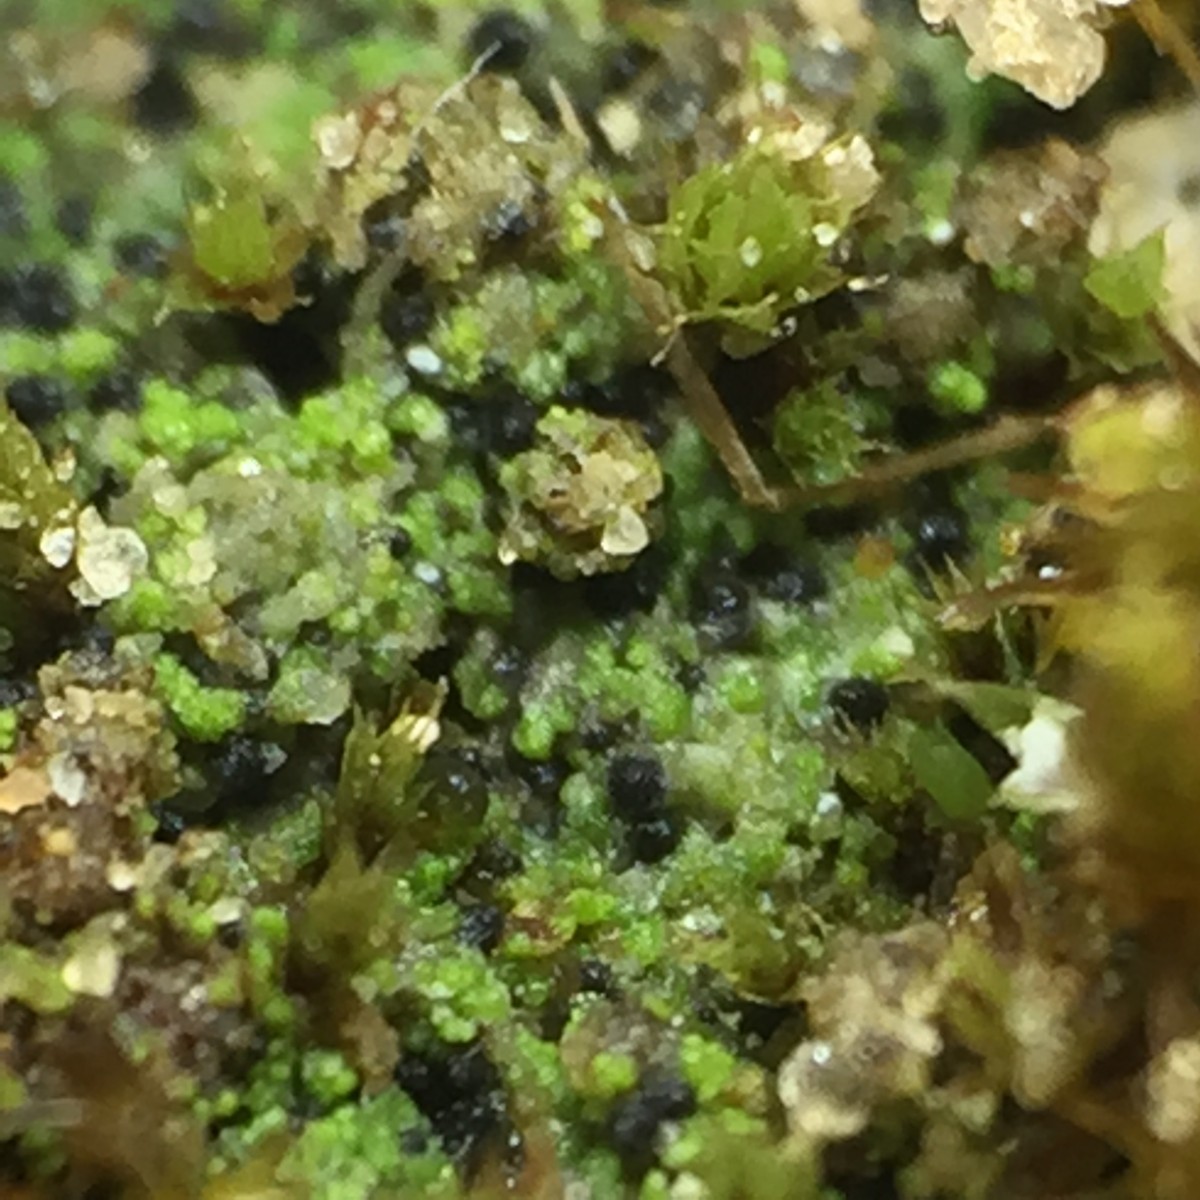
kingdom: Fungi
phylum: Ascomycota
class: Eurotiomycetes
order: Verrucariales
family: Verrucariaceae
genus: Verrucaria
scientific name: Verrucaria bryoctona
